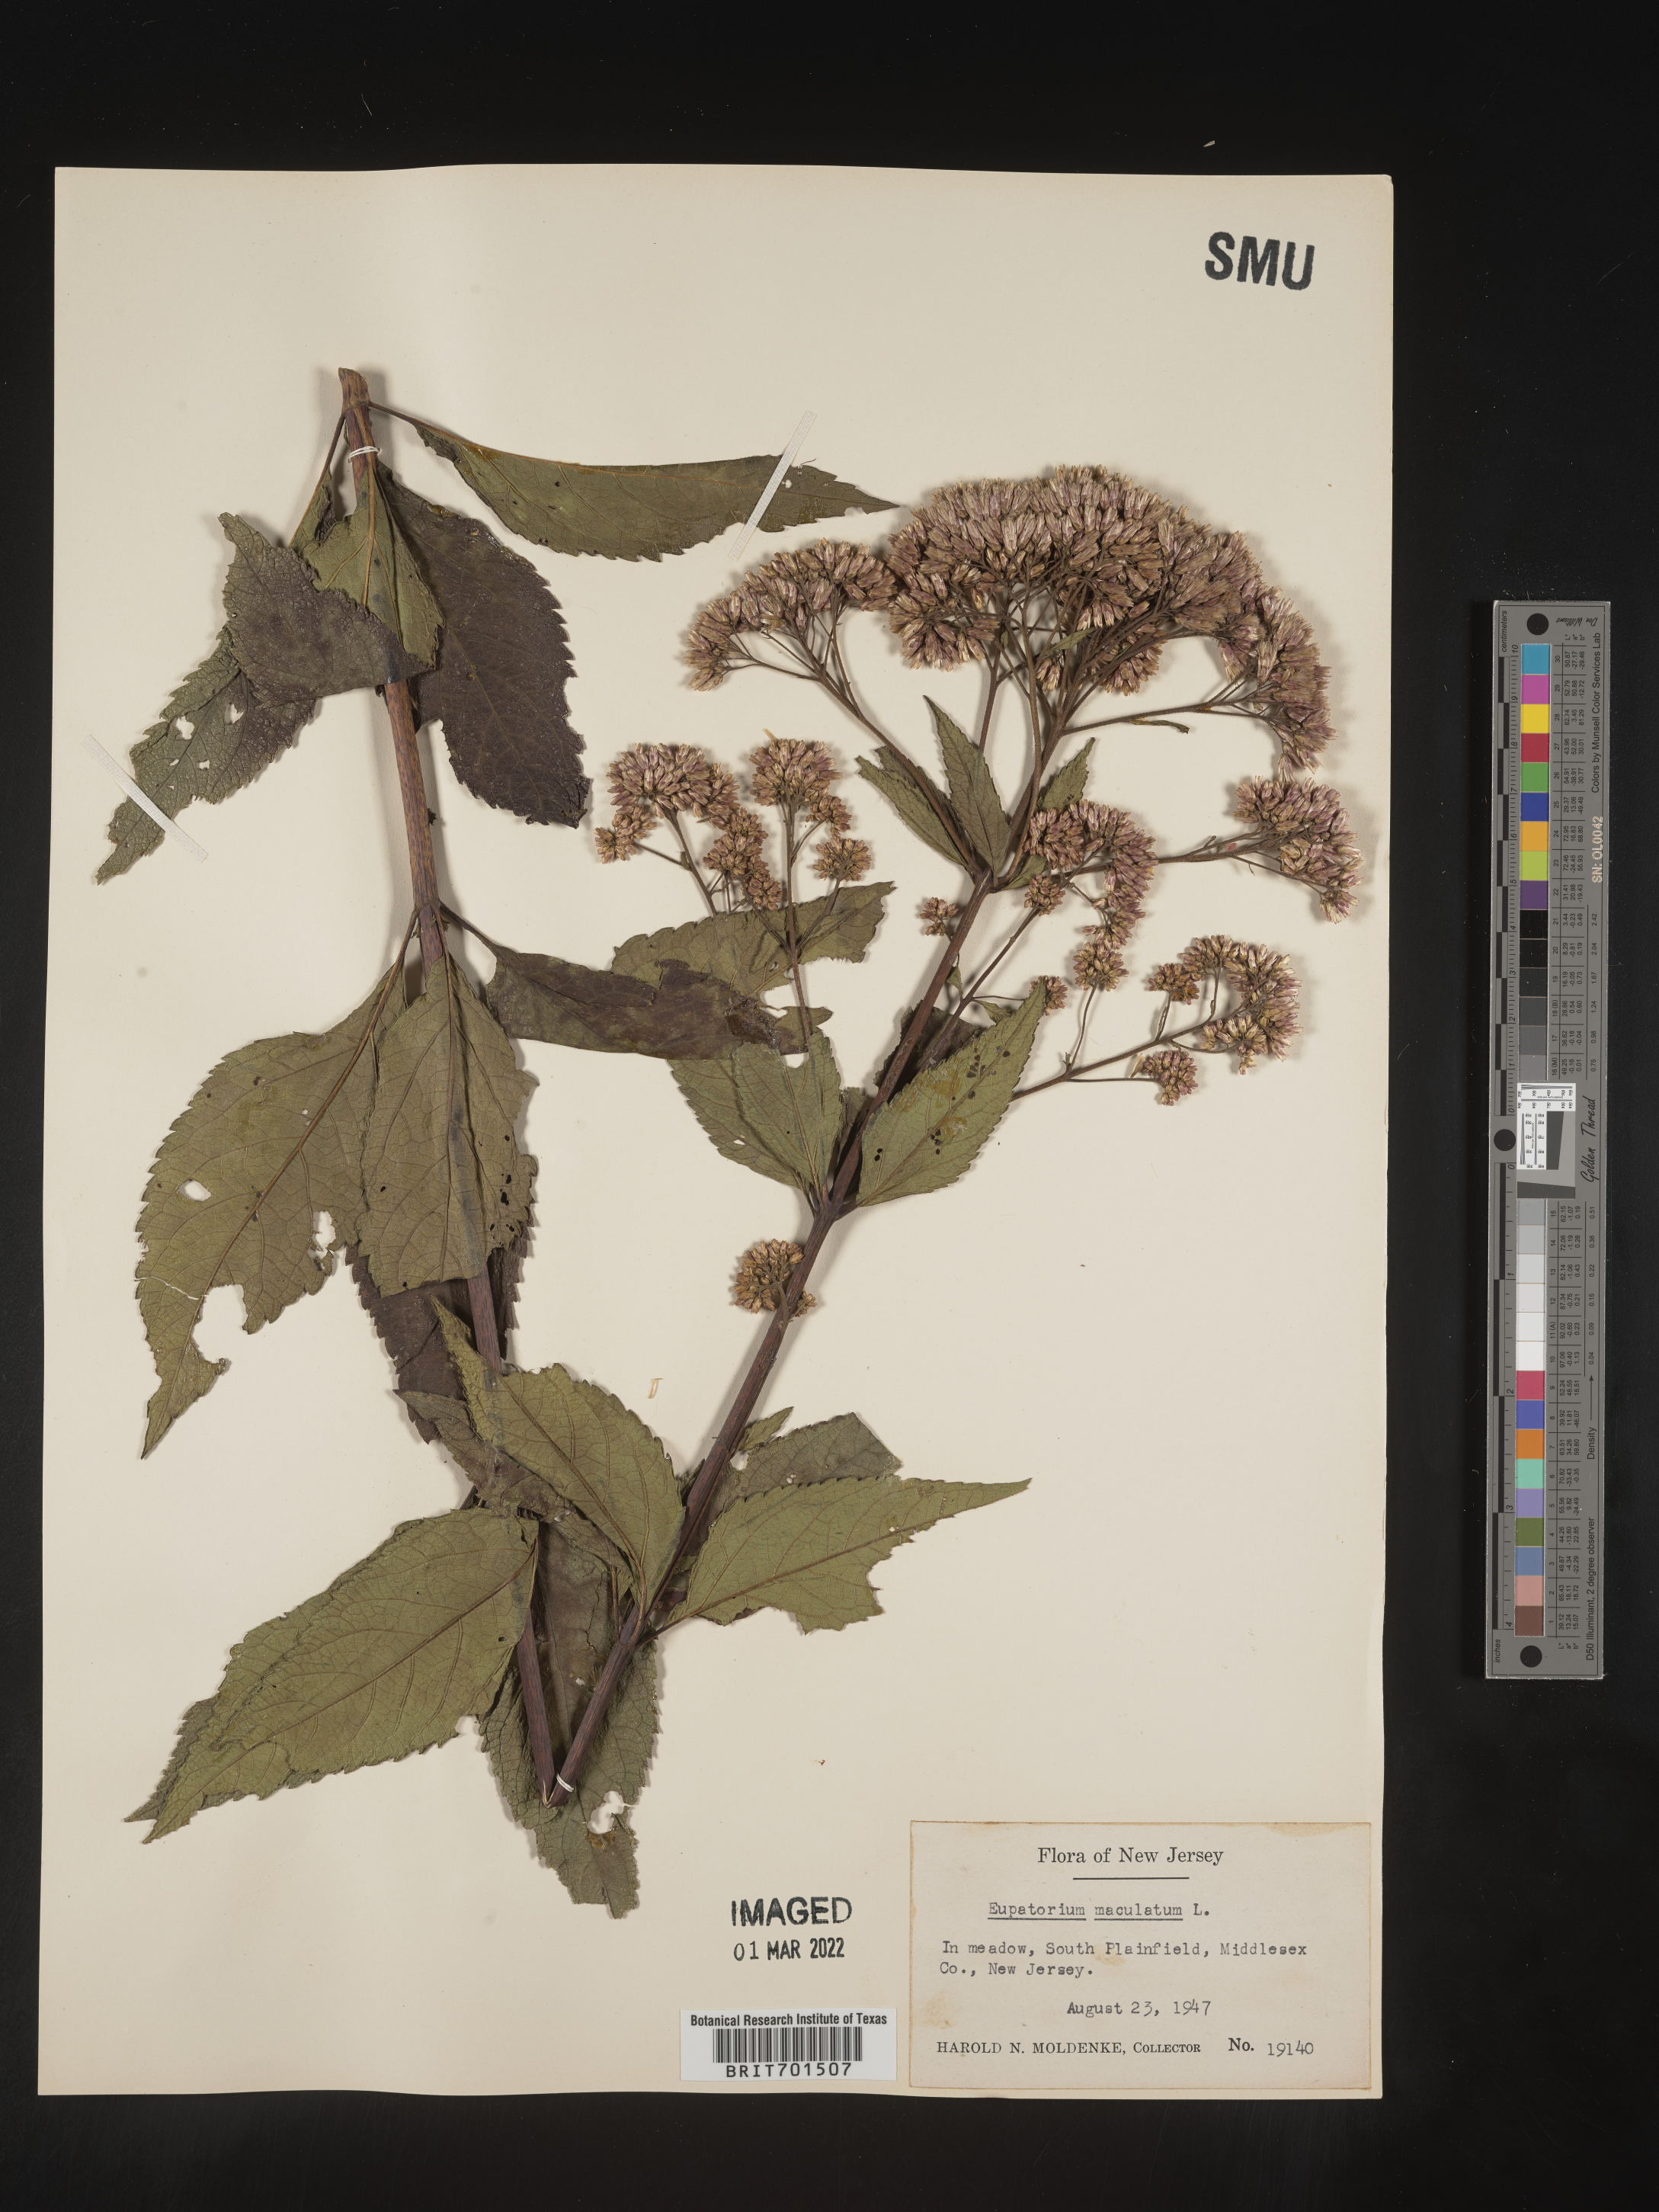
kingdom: Plantae
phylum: Tracheophyta
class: Magnoliopsida
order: Asterales
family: Asteraceae
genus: Eutrochium
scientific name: Eutrochium maculatum
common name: Spotted joe pye weed
